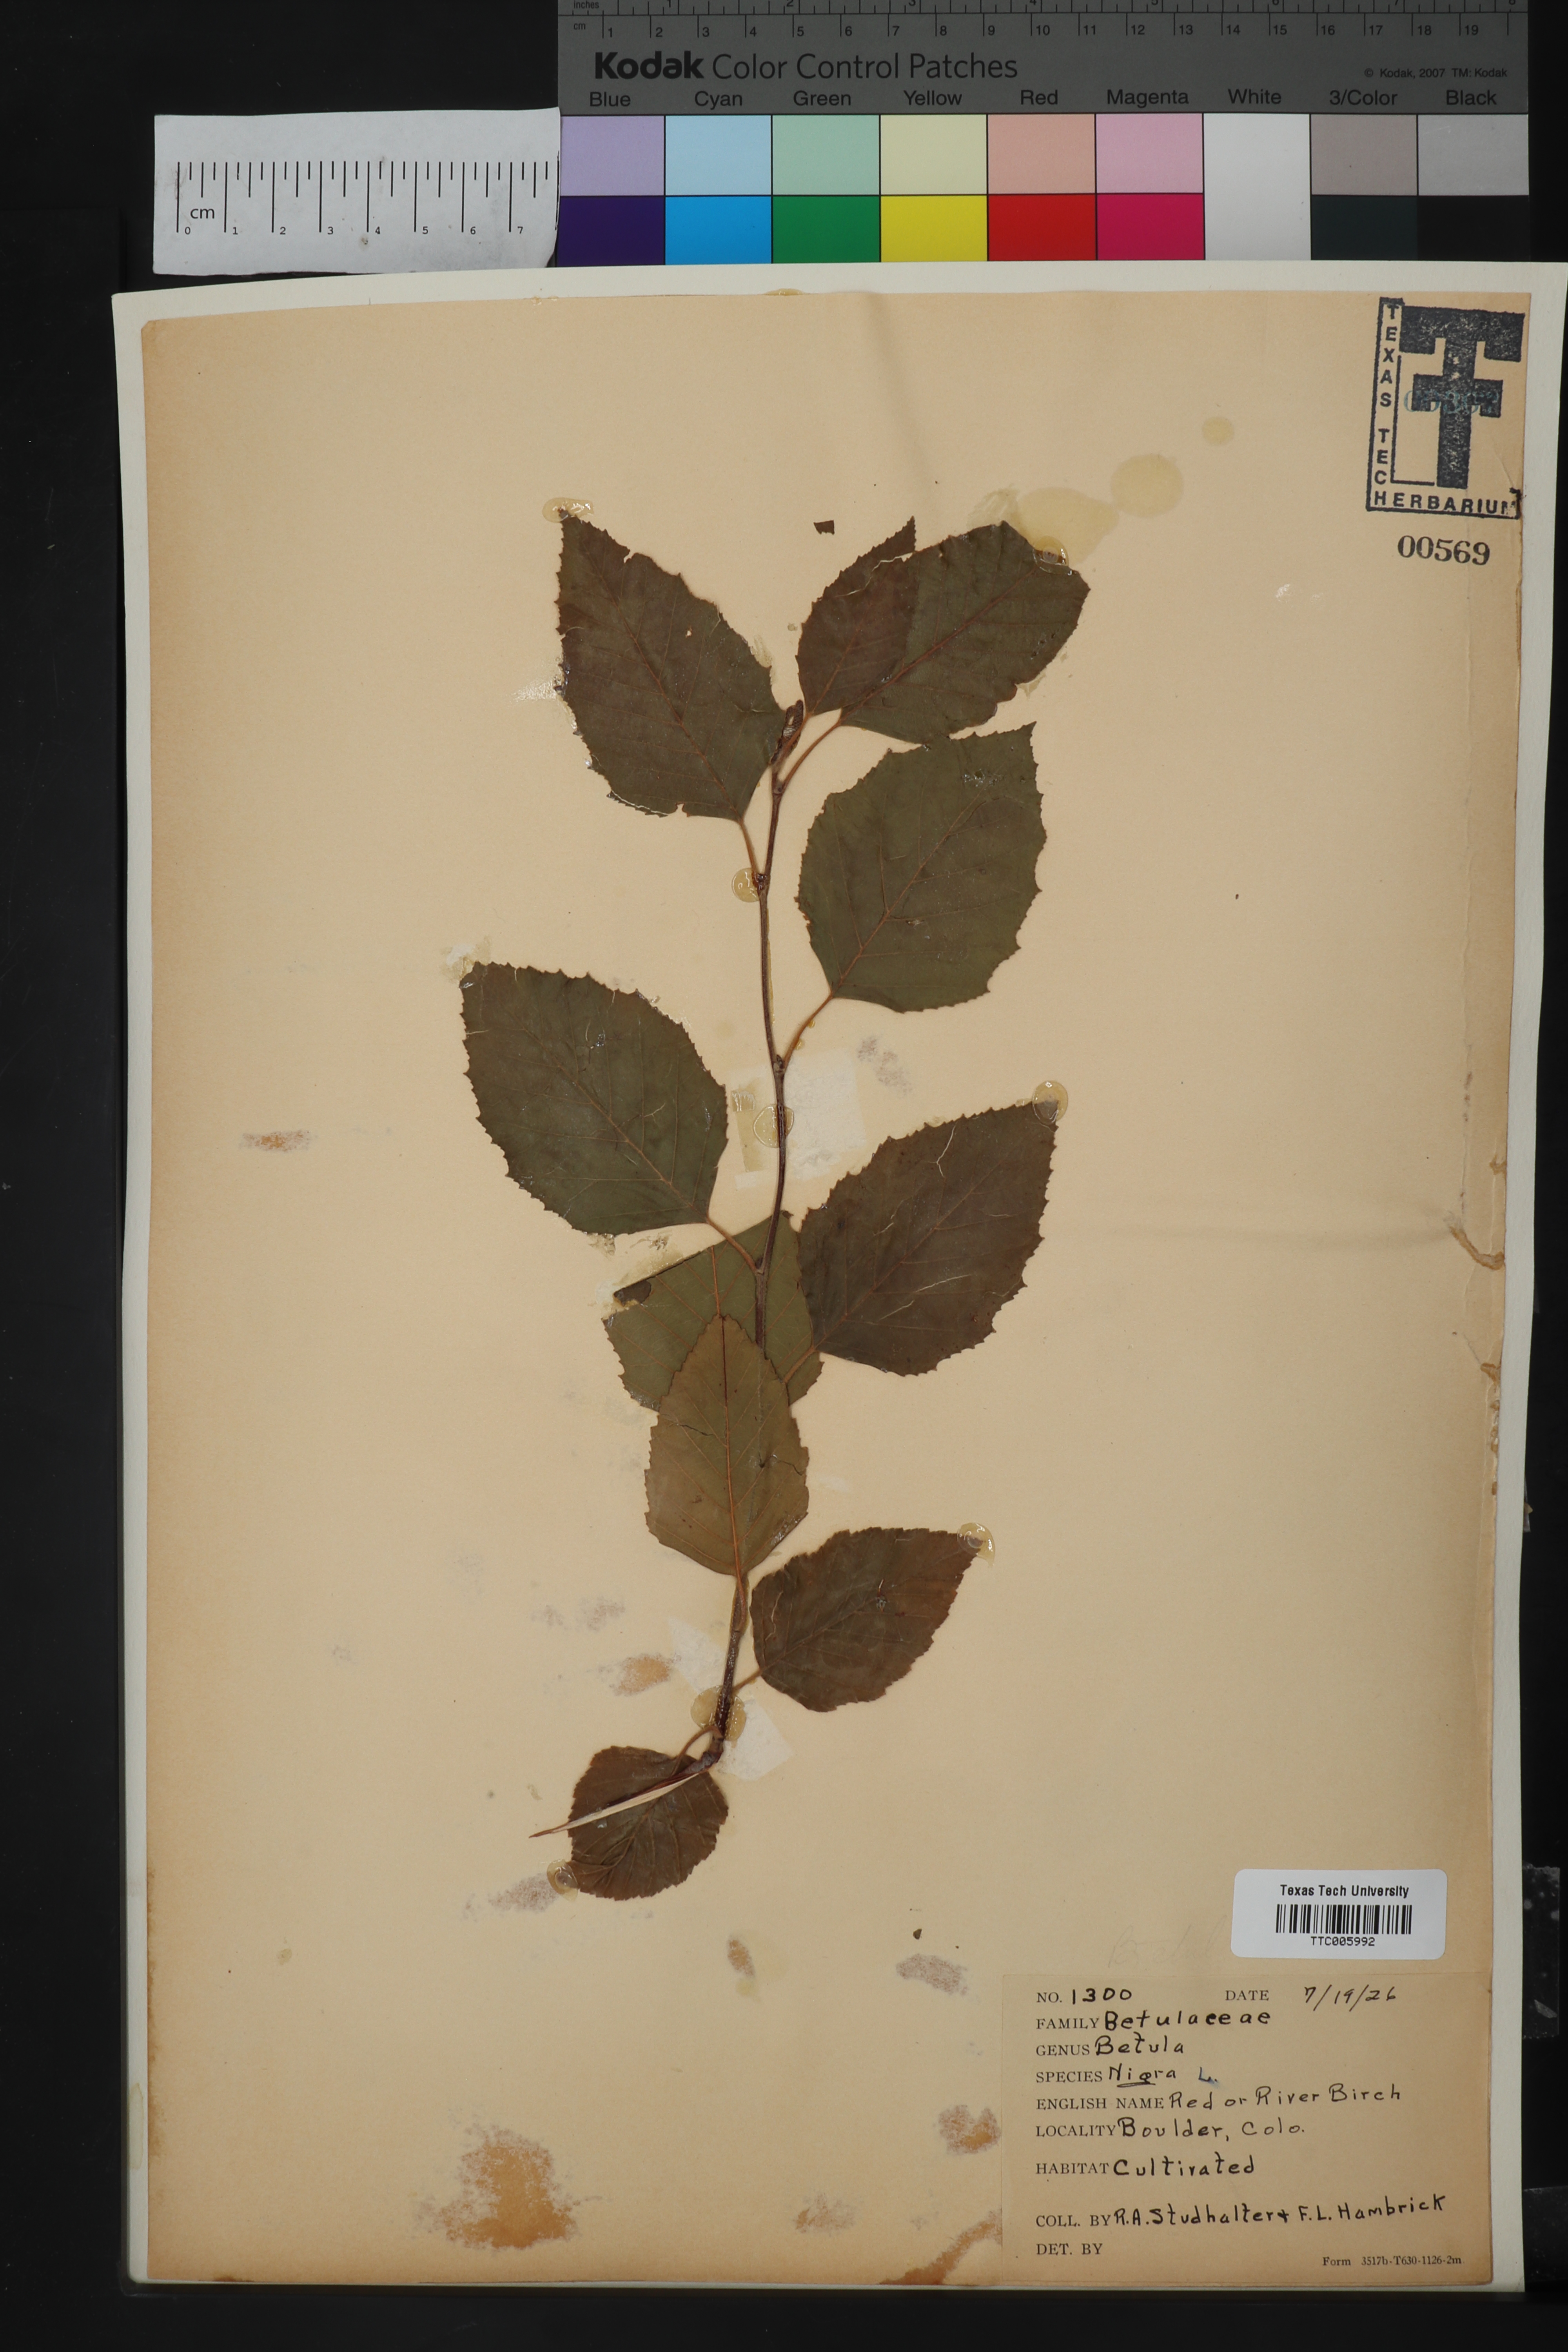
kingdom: Plantae
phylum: Tracheophyta
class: Magnoliopsida
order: Fagales
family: Betulaceae
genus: Betula
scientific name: Betula nigra
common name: Black birch
